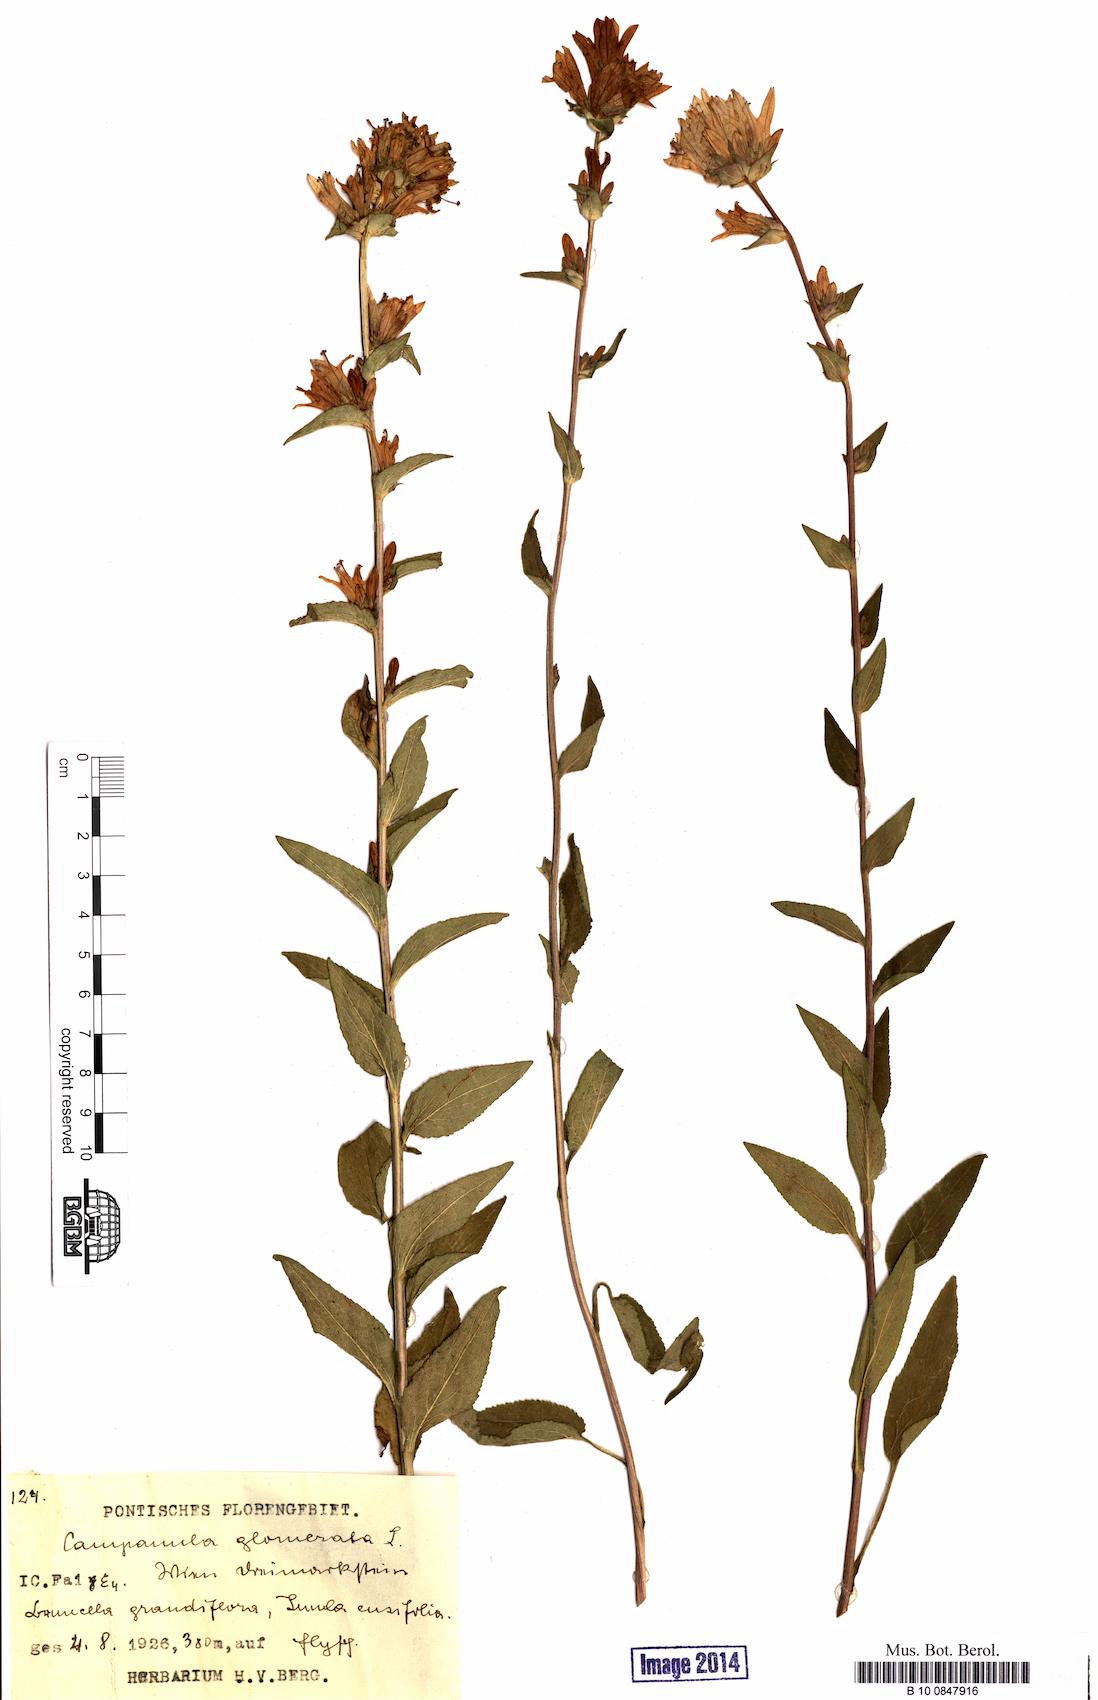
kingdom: Plantae
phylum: Tracheophyta
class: Magnoliopsida
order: Asterales
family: Campanulaceae
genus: Campanula
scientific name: Campanula glomerata
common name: Clustered bellflower
